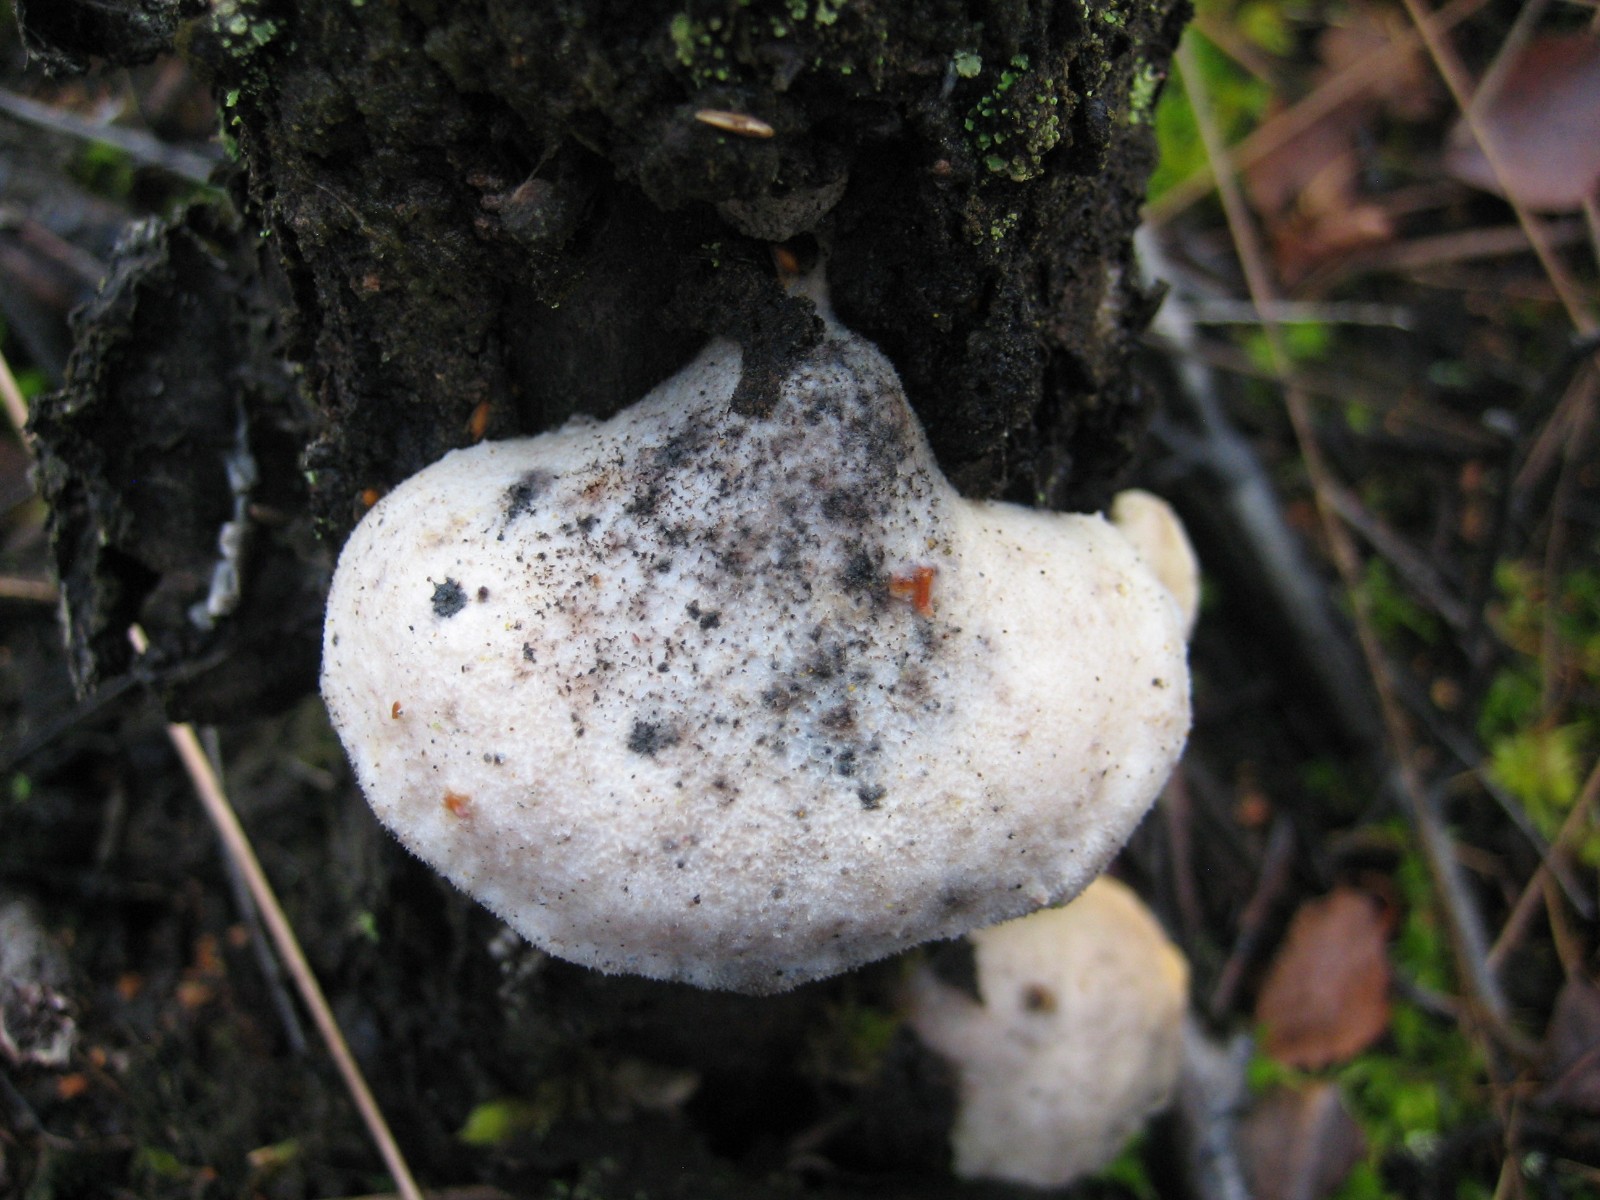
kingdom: Fungi
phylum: Basidiomycota
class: Agaricomycetes
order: Polyporales
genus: Amaropostia
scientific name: Amaropostia stiptica
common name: bitter kødporesvamp
